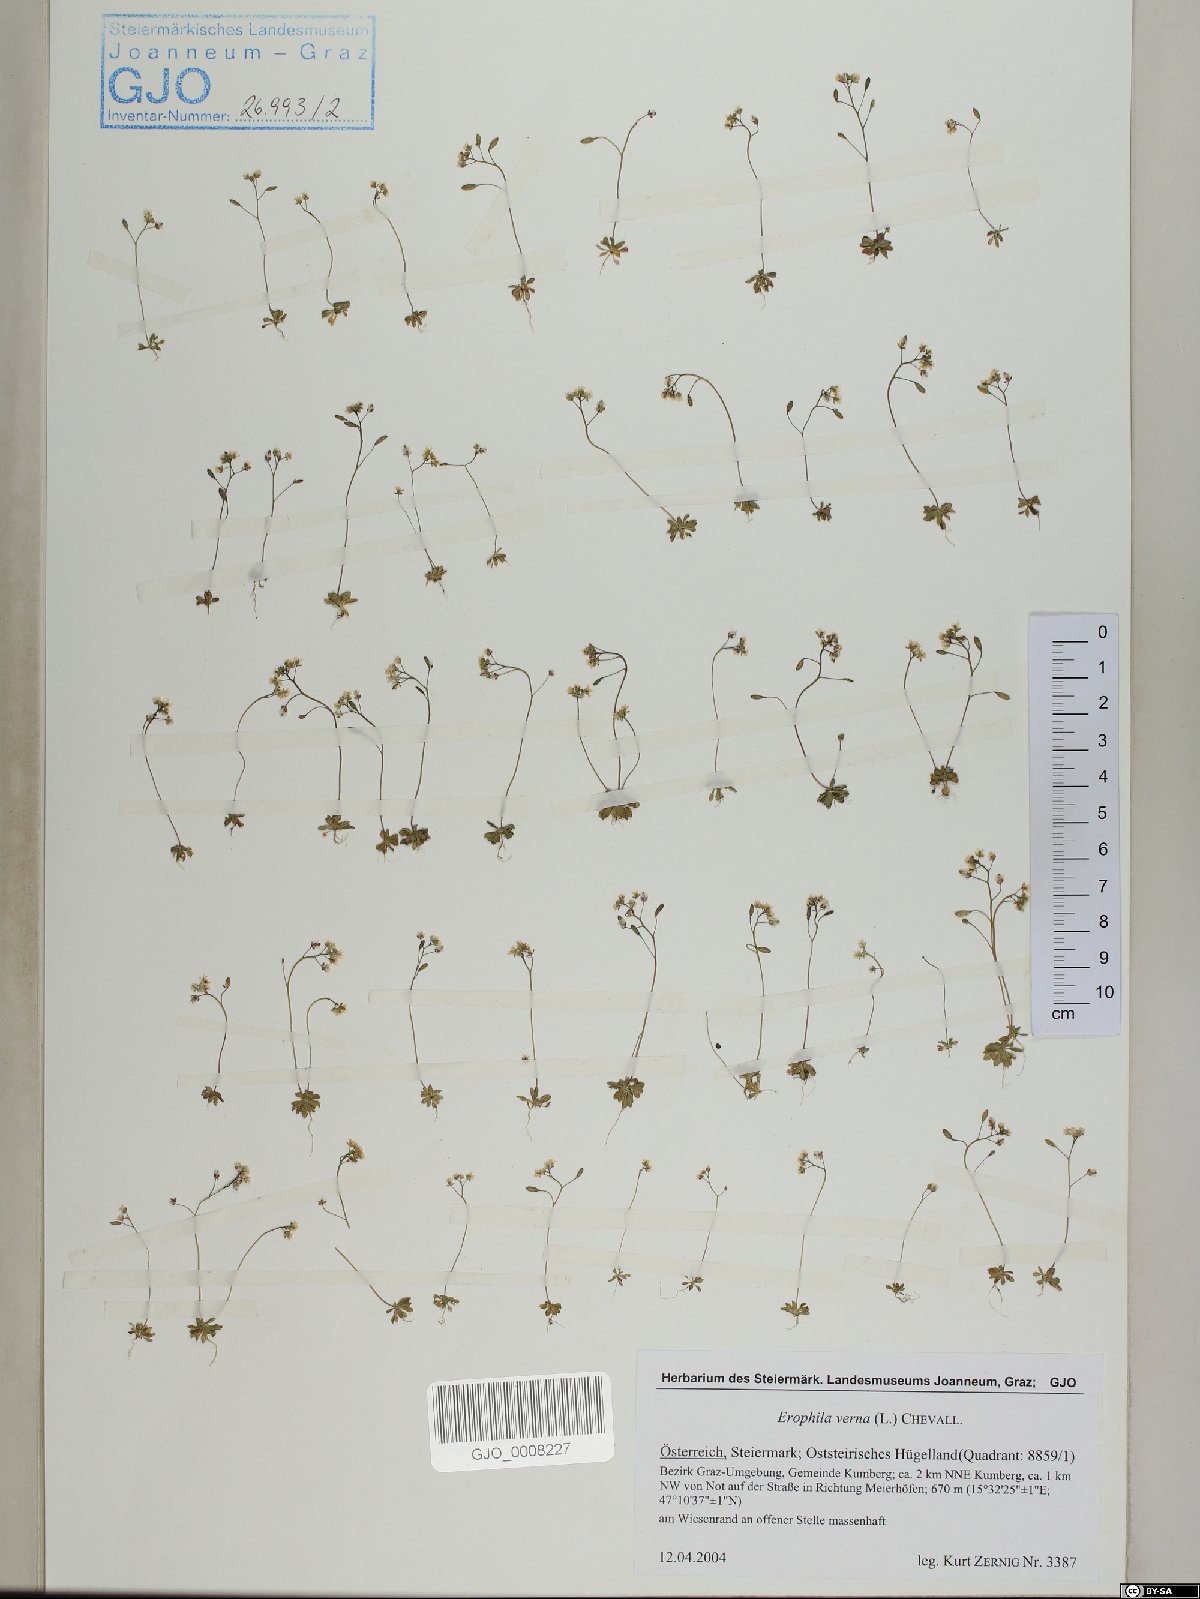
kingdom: Plantae
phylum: Tracheophyta
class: Magnoliopsida
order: Brassicales
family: Brassicaceae
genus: Draba
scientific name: Draba verna
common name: Spring draba
